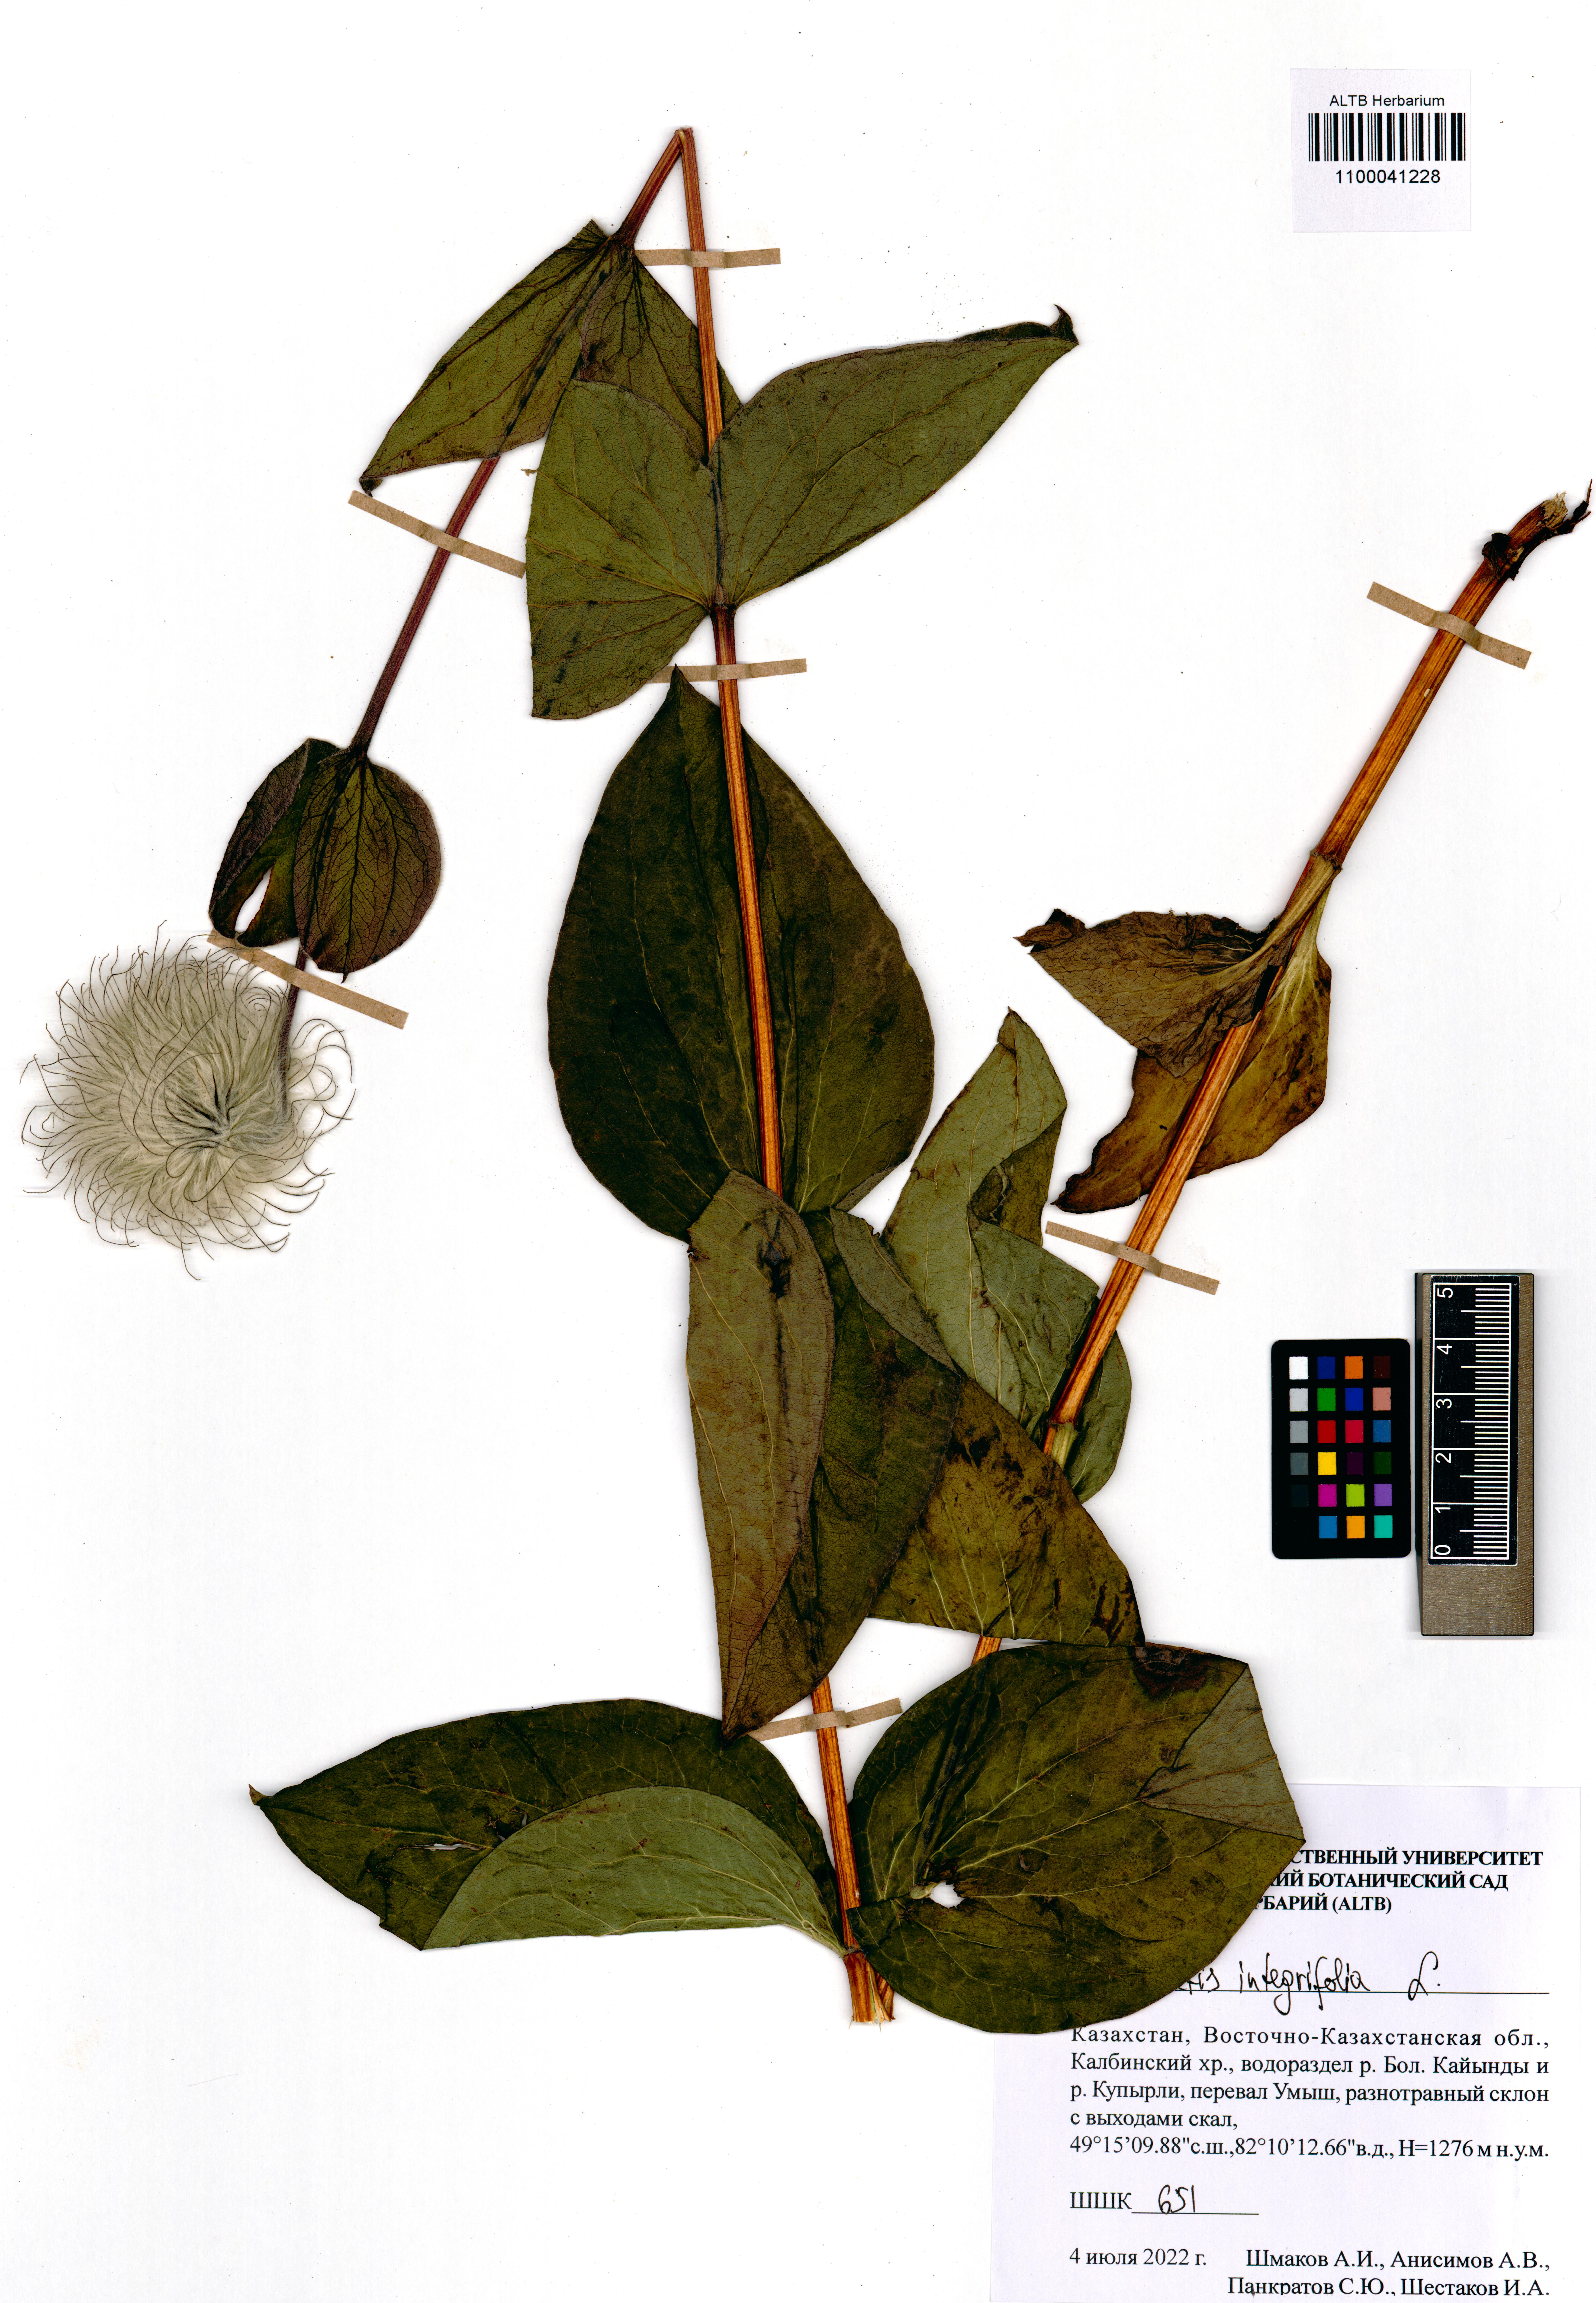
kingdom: Plantae
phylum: Tracheophyta
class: Magnoliopsida
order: Ranunculales
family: Ranunculaceae
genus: Clematis
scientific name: Clematis integrifolia
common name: Solitary clematis
